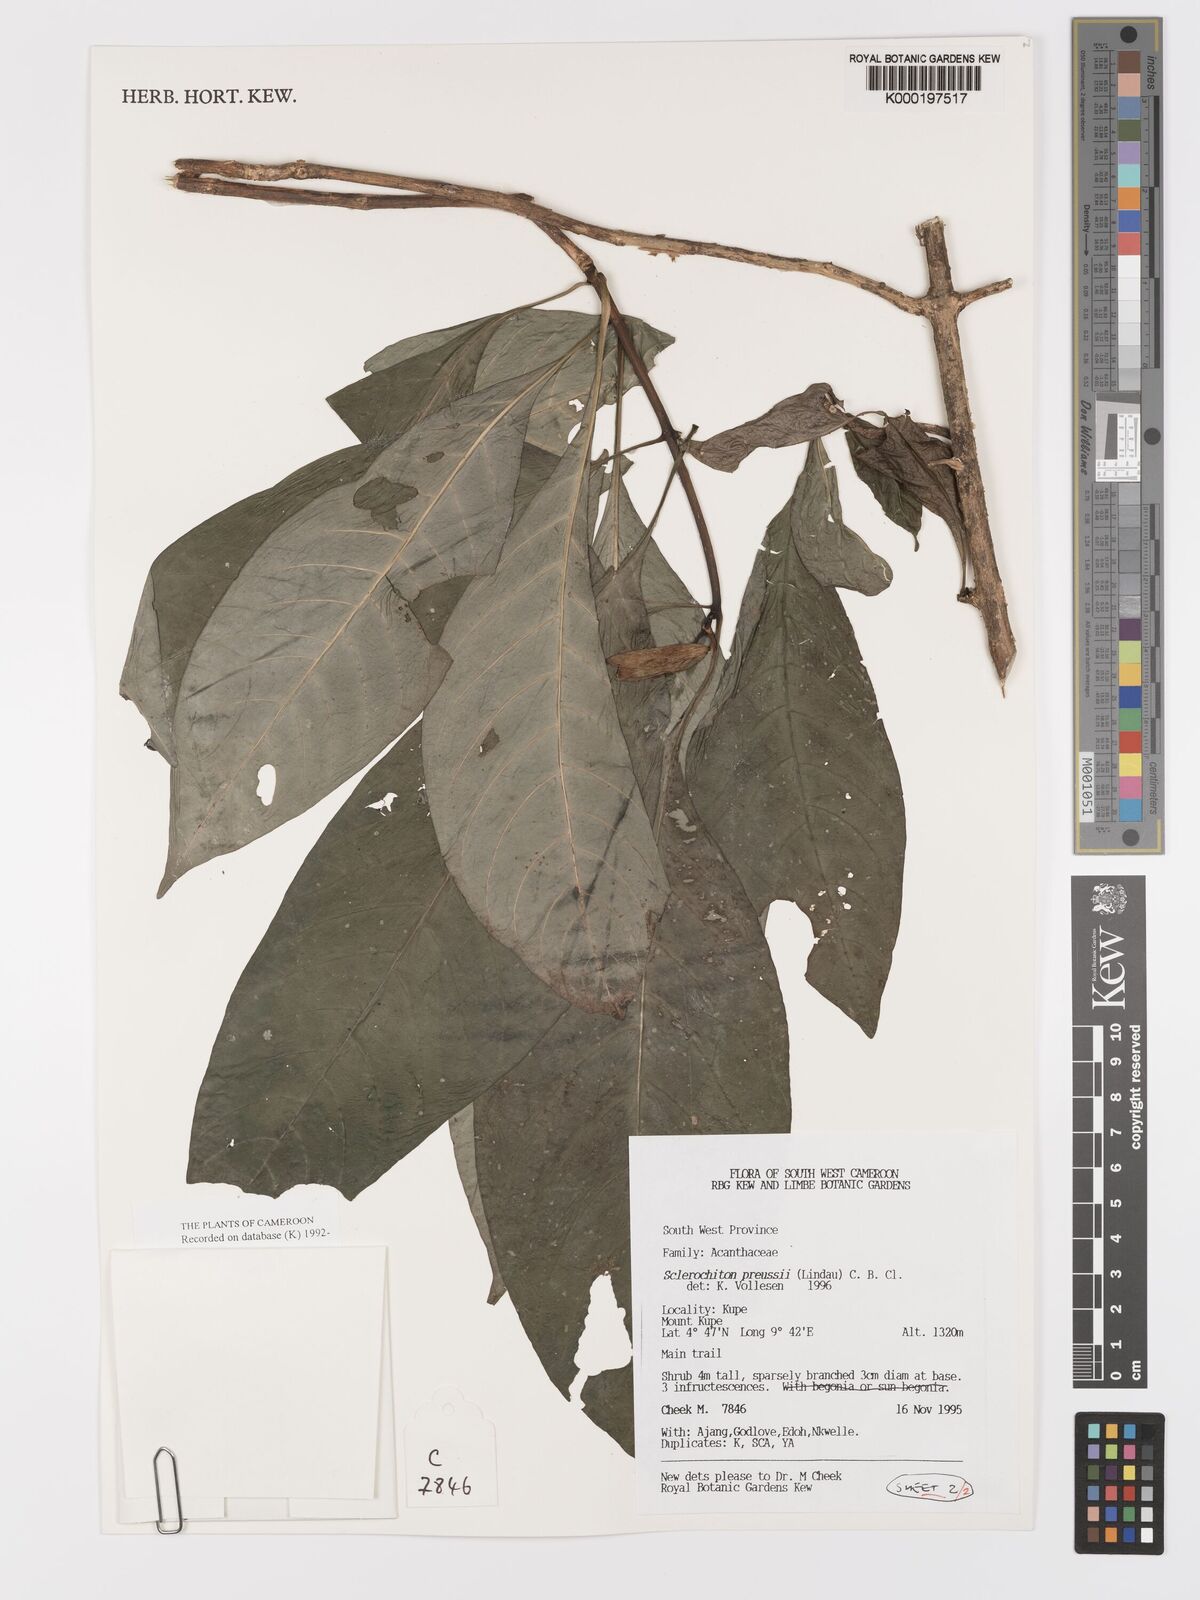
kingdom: Plantae
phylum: Tracheophyta
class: Magnoliopsida
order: Lamiales
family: Acanthaceae
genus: Sclerochiton
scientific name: Sclerochiton preussii
